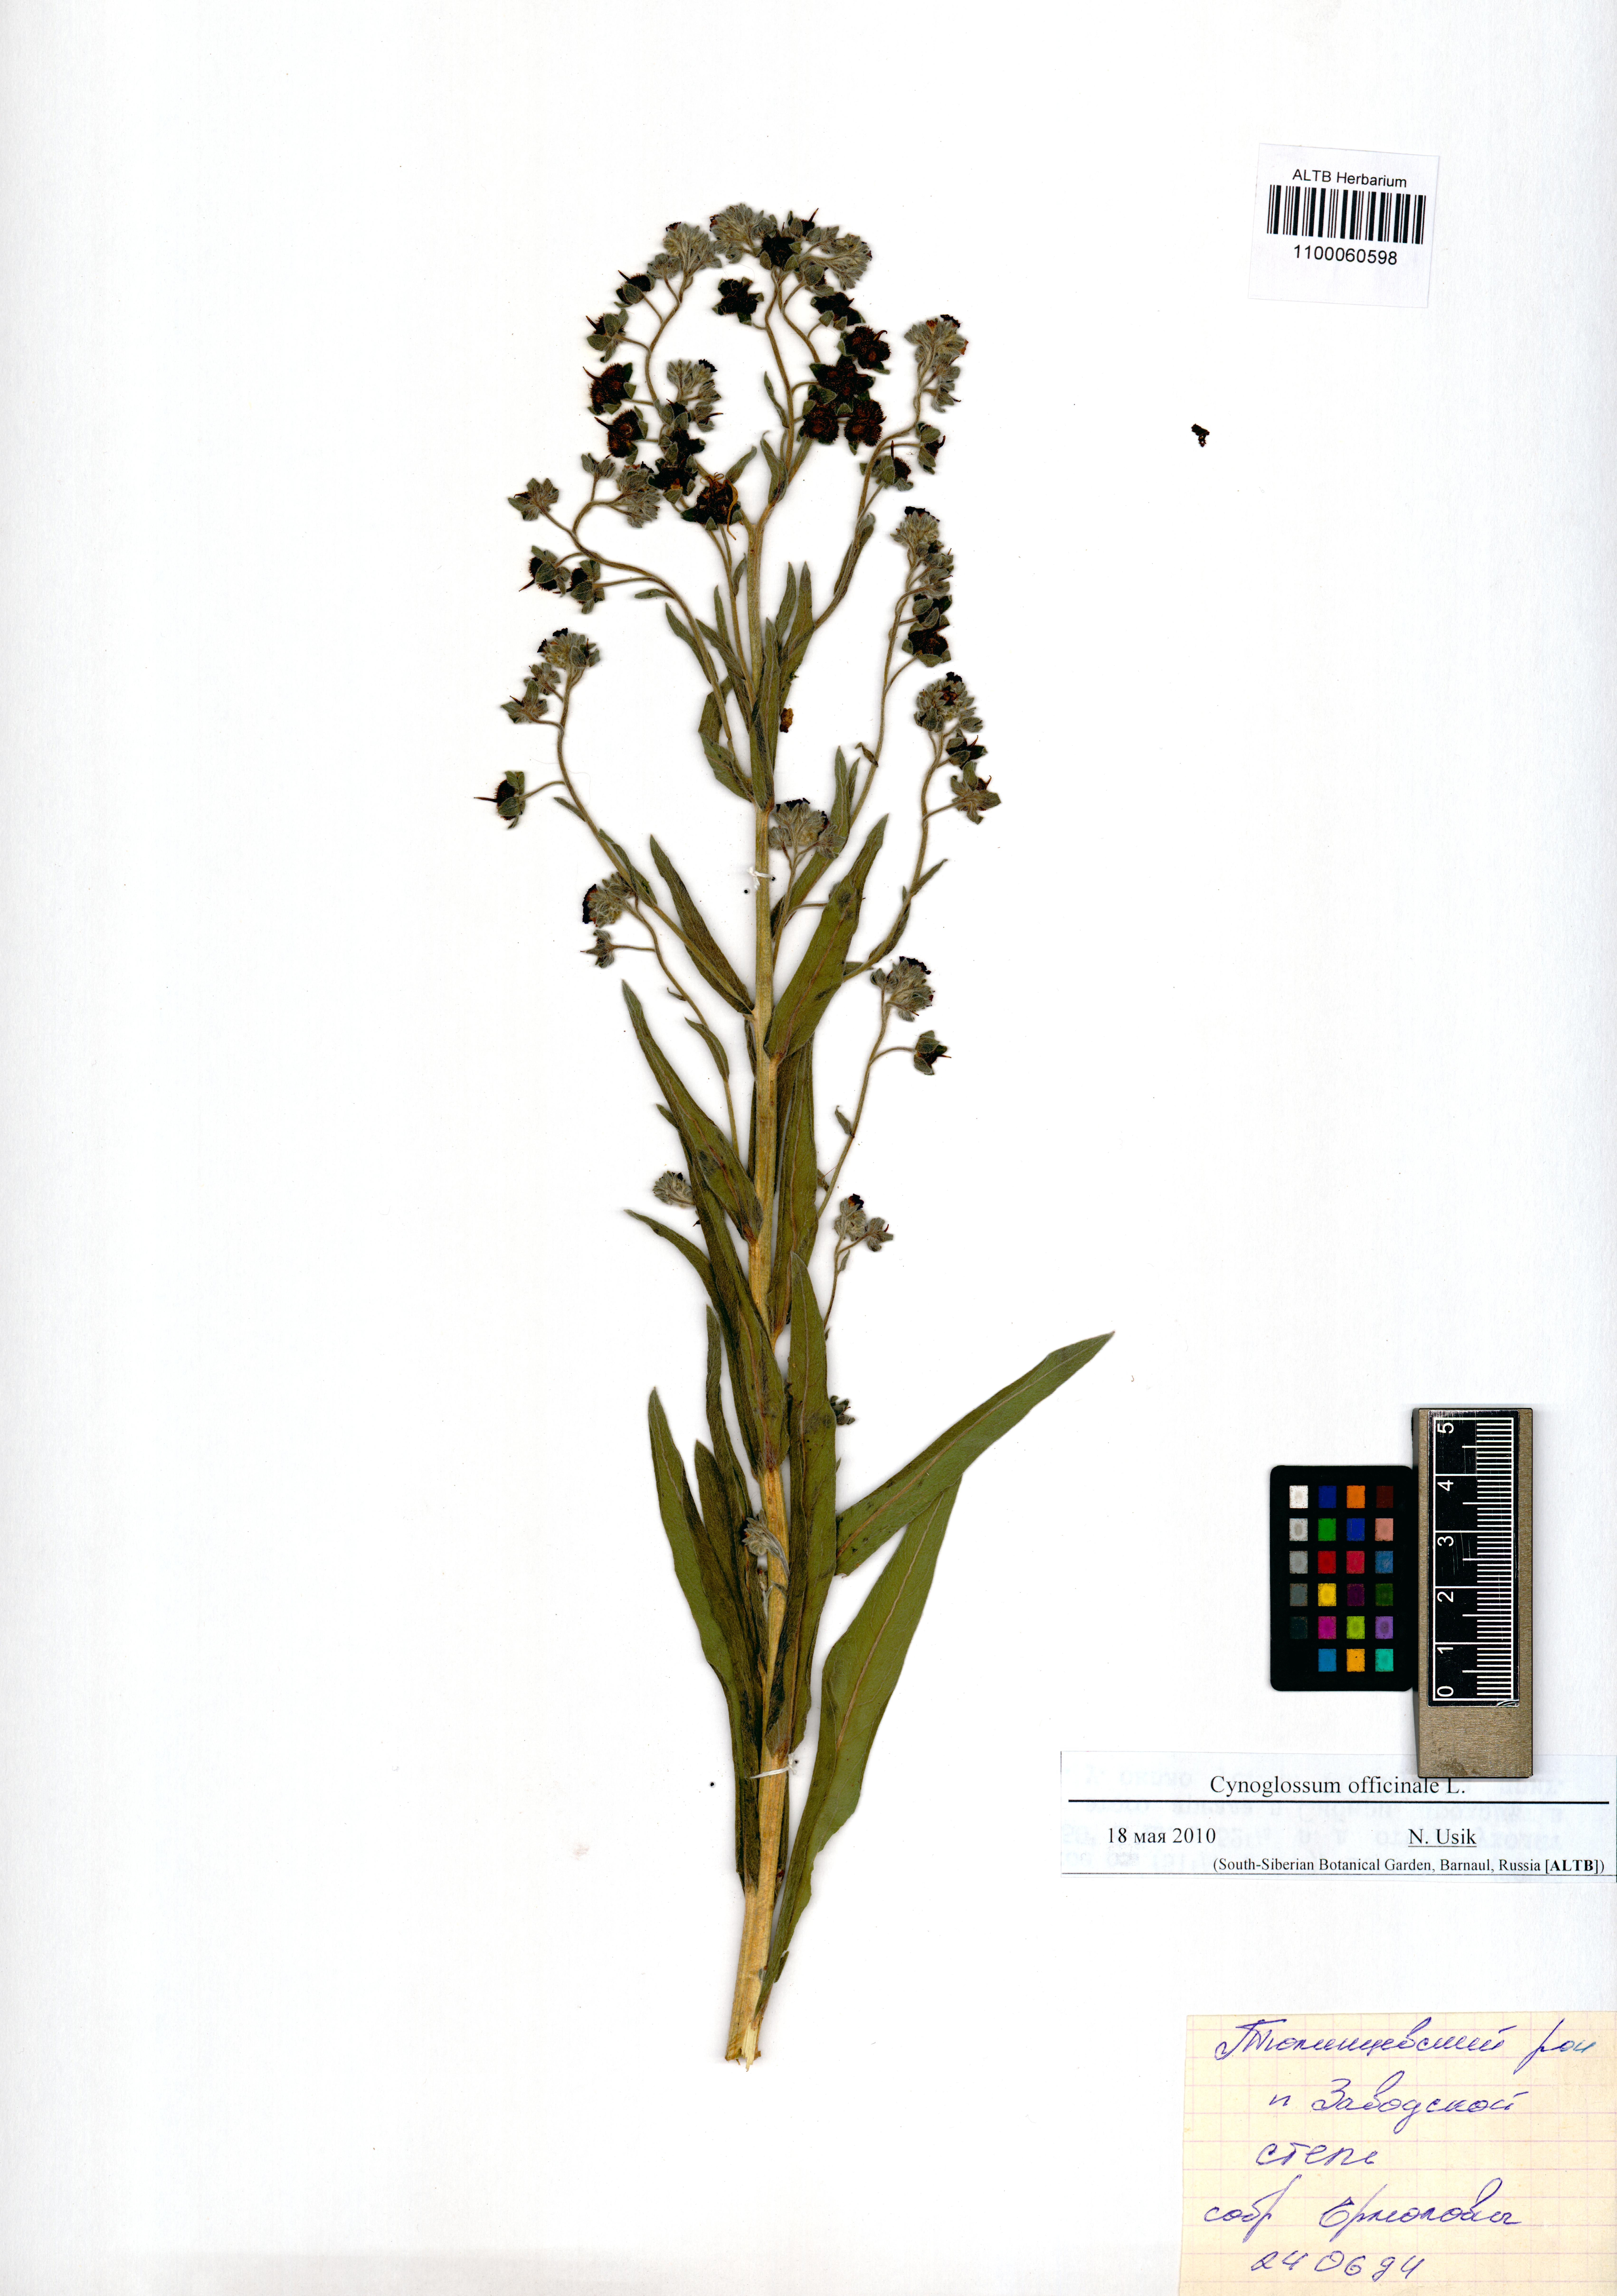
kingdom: Plantae
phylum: Tracheophyta
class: Magnoliopsida
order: Boraginales
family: Boraginaceae
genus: Cynoglossum
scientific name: Cynoglossum officinale
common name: Hound's-tongue
